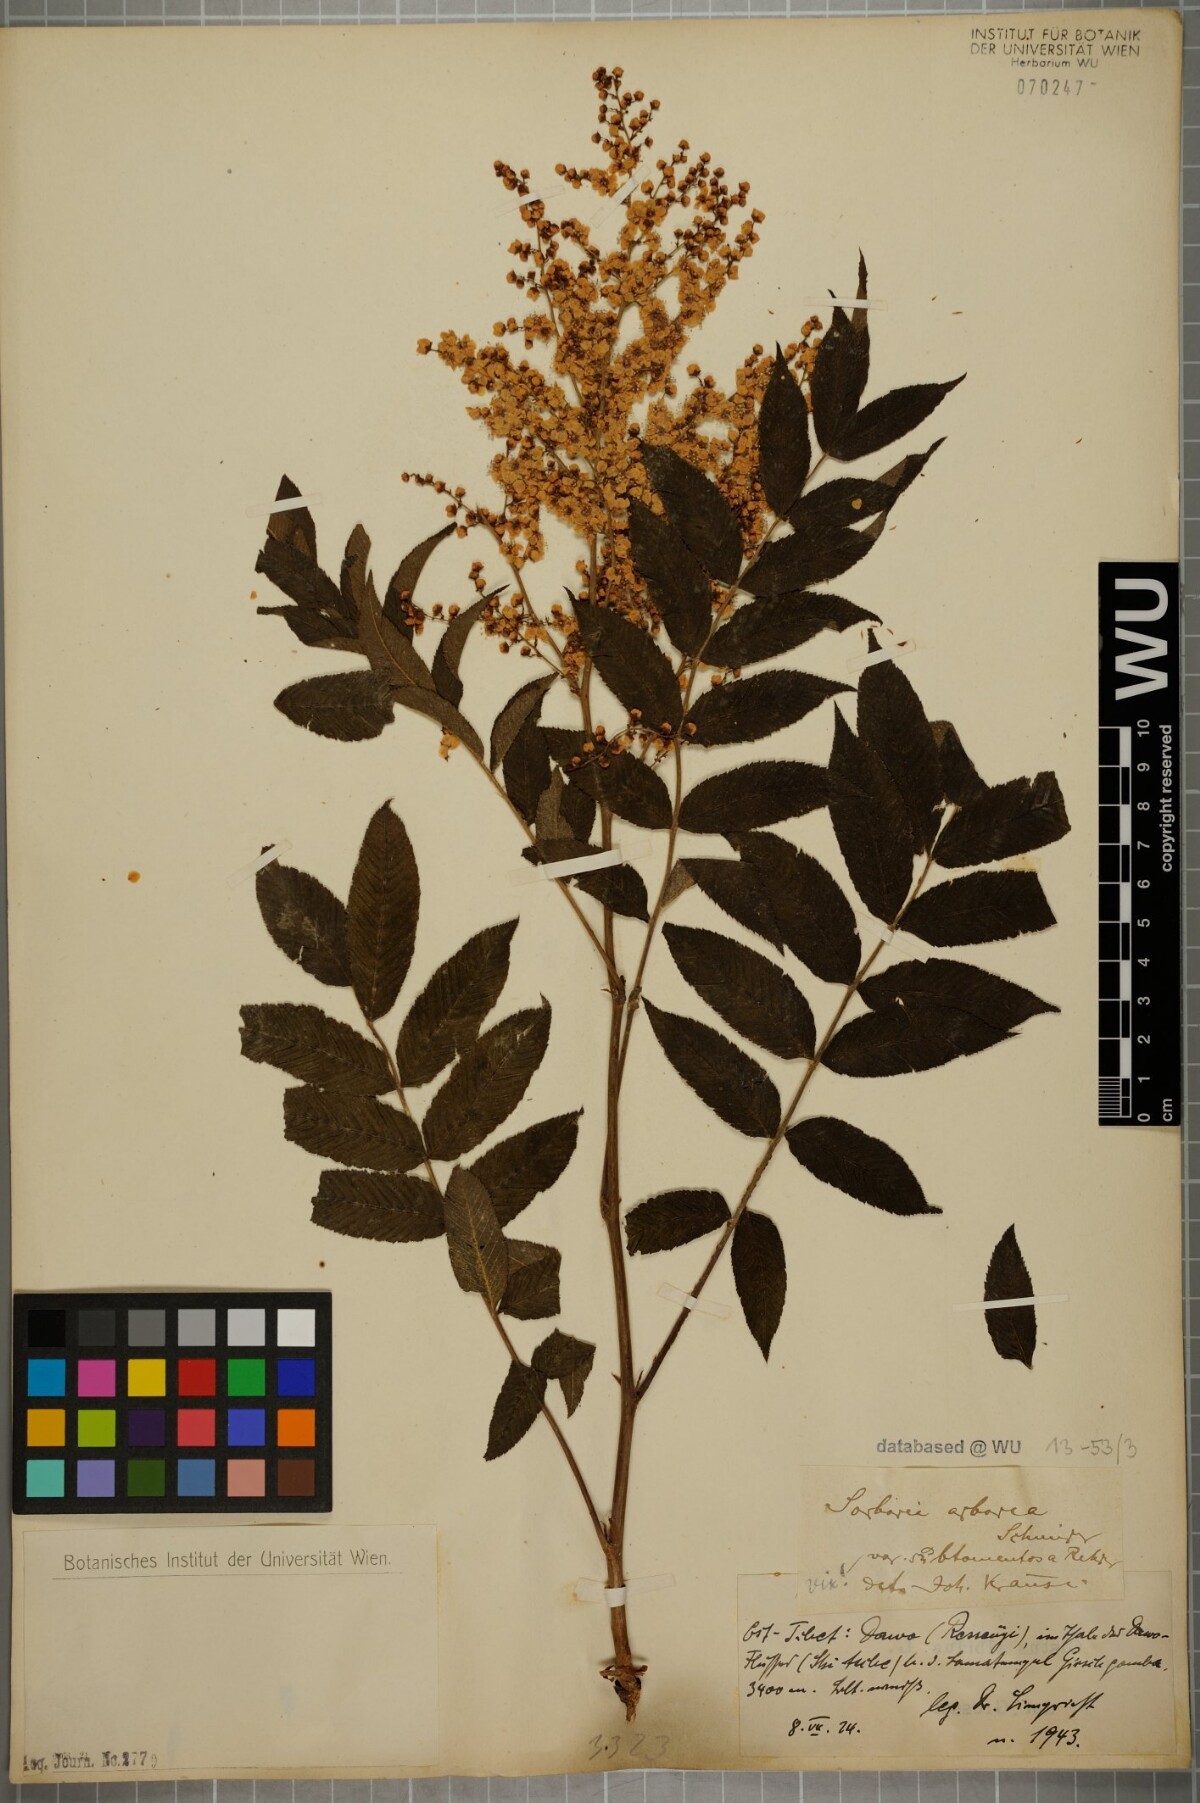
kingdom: Plantae
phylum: Tracheophyta
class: Magnoliopsida
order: Rosales
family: Rosaceae
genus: Sorbaria
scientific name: Sorbaria kirilowii
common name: Chinese sorbaria
